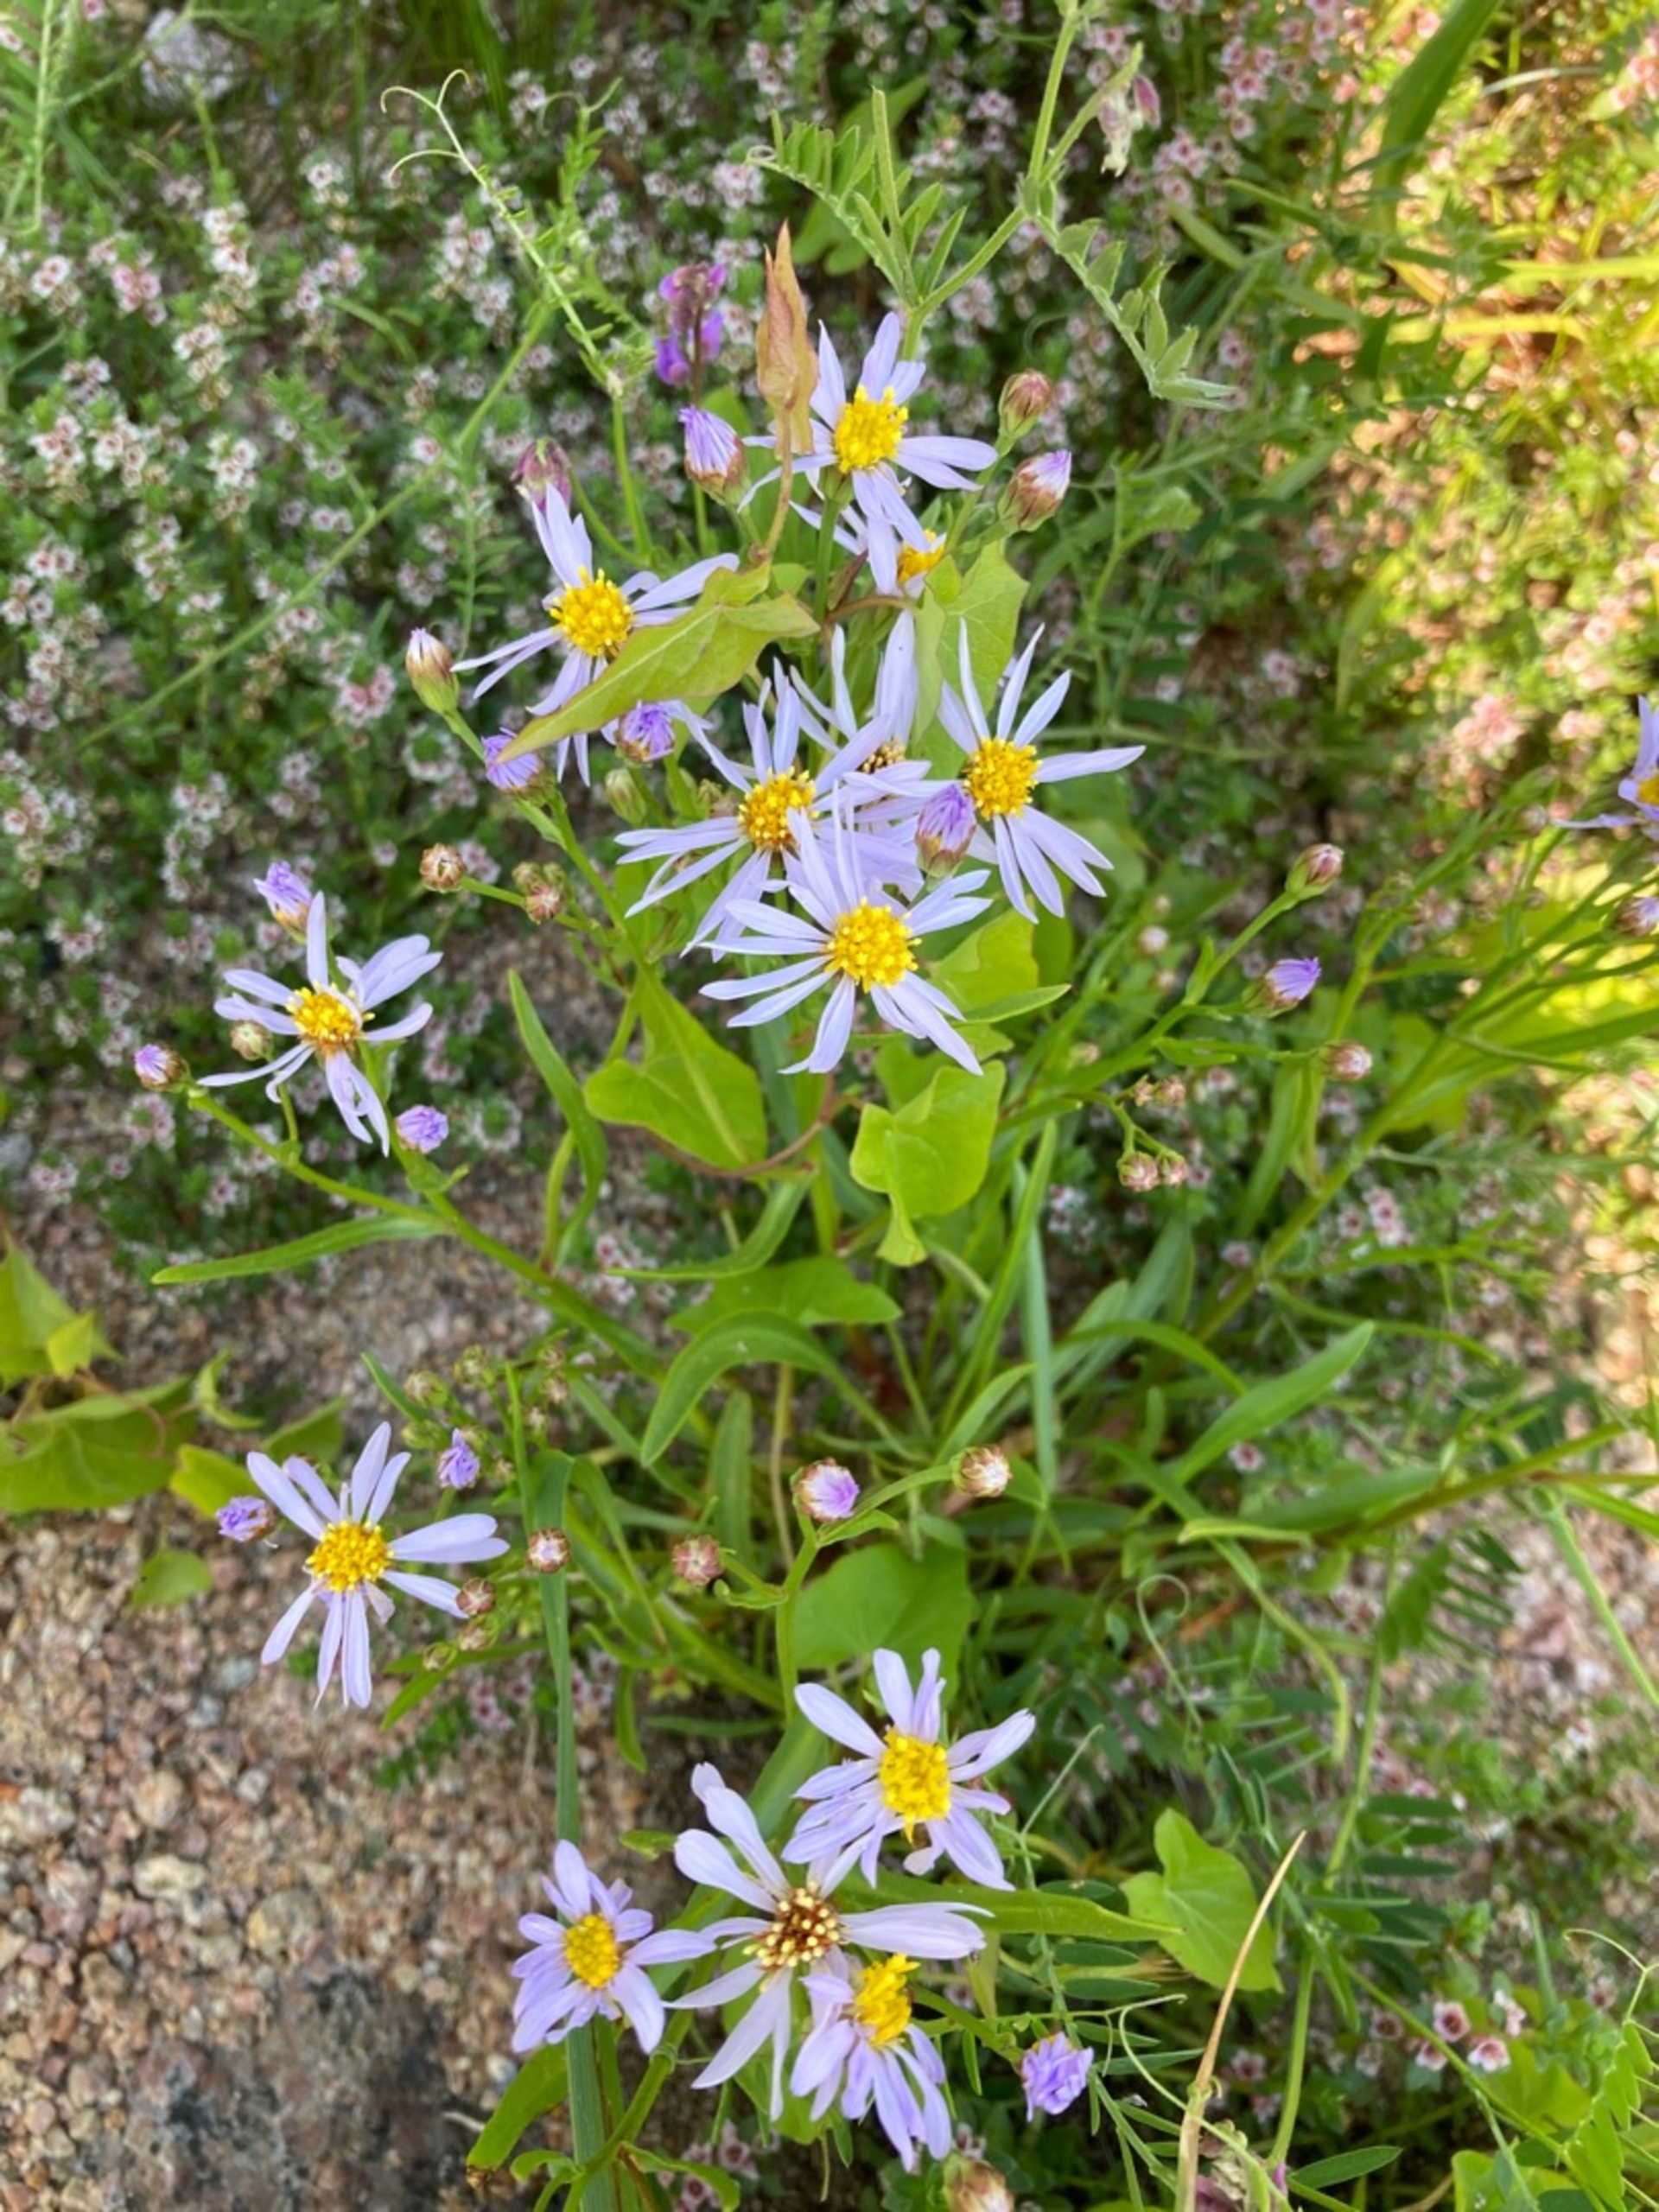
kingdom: Plantae
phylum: Tracheophyta
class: Magnoliopsida
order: Asterales
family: Asteraceae
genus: Tripolium
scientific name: Tripolium pannonicum
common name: Strandasters (underart)
